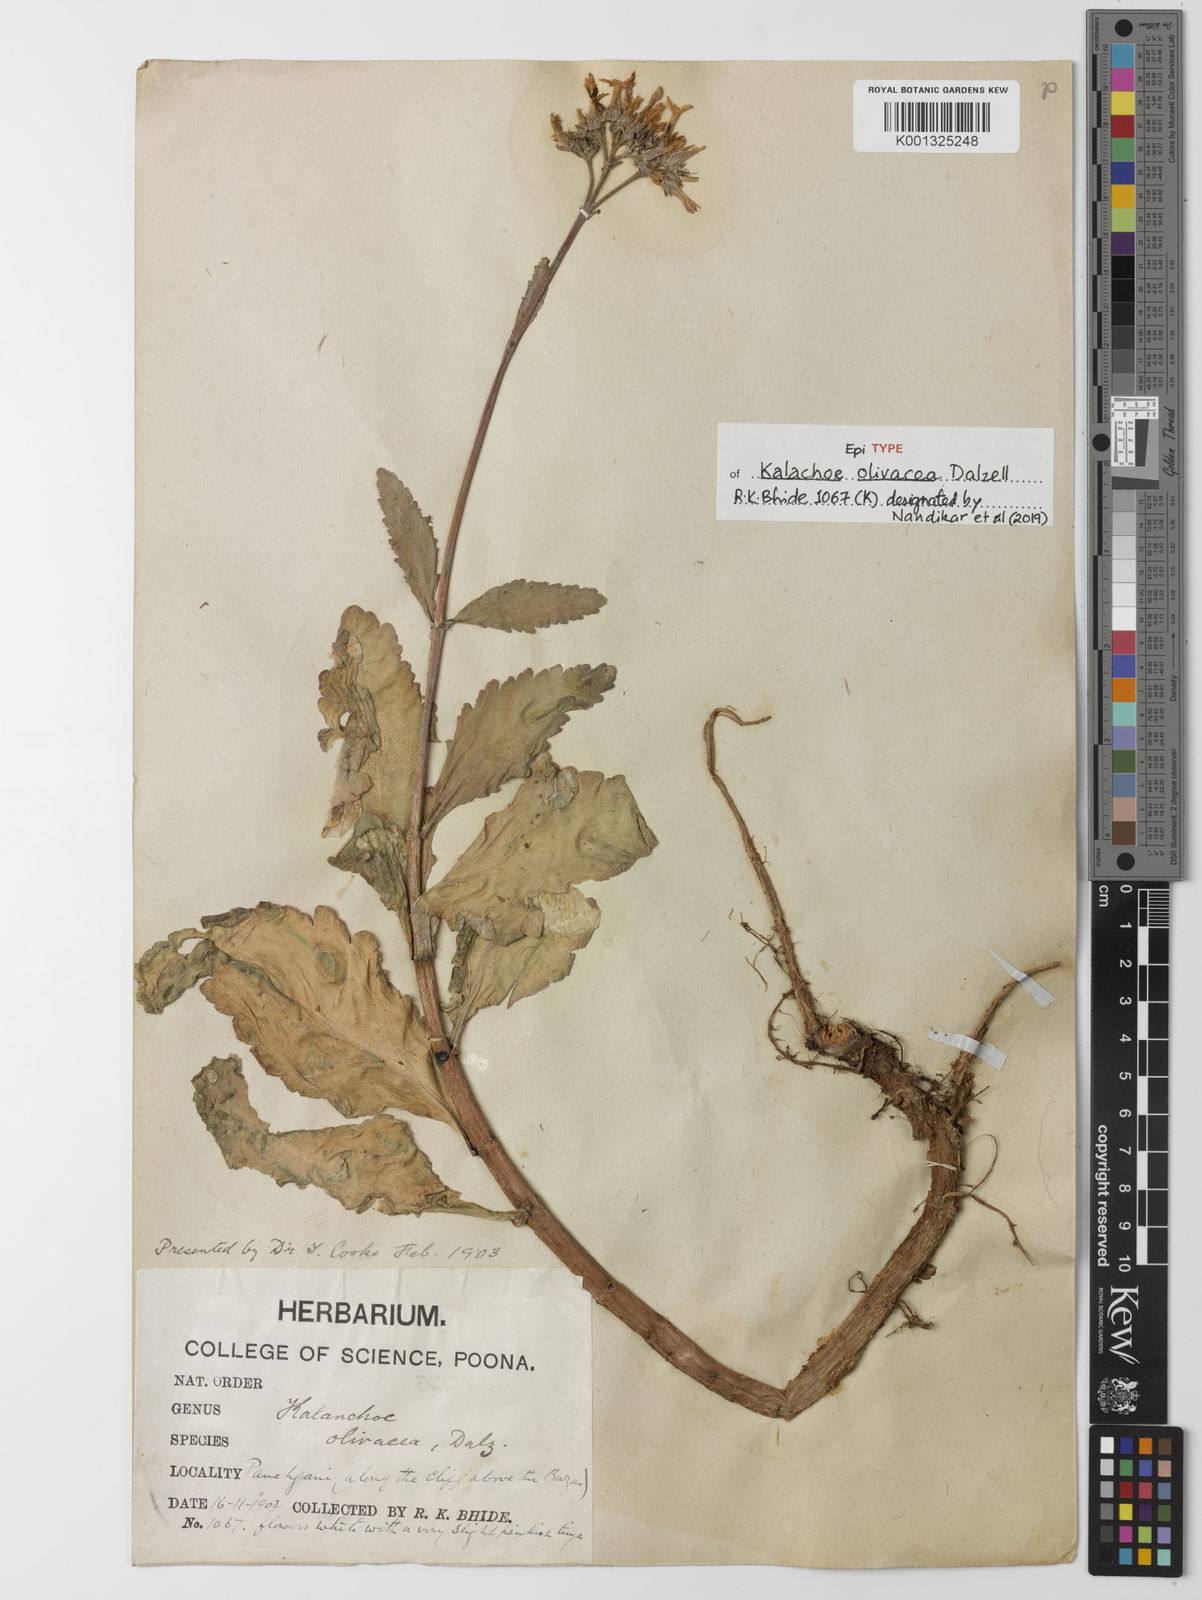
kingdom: Plantae
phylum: Tracheophyta
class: Magnoliopsida
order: Saxifragales
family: Crassulaceae
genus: Kalanchoe
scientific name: Kalanchoe olivacea
